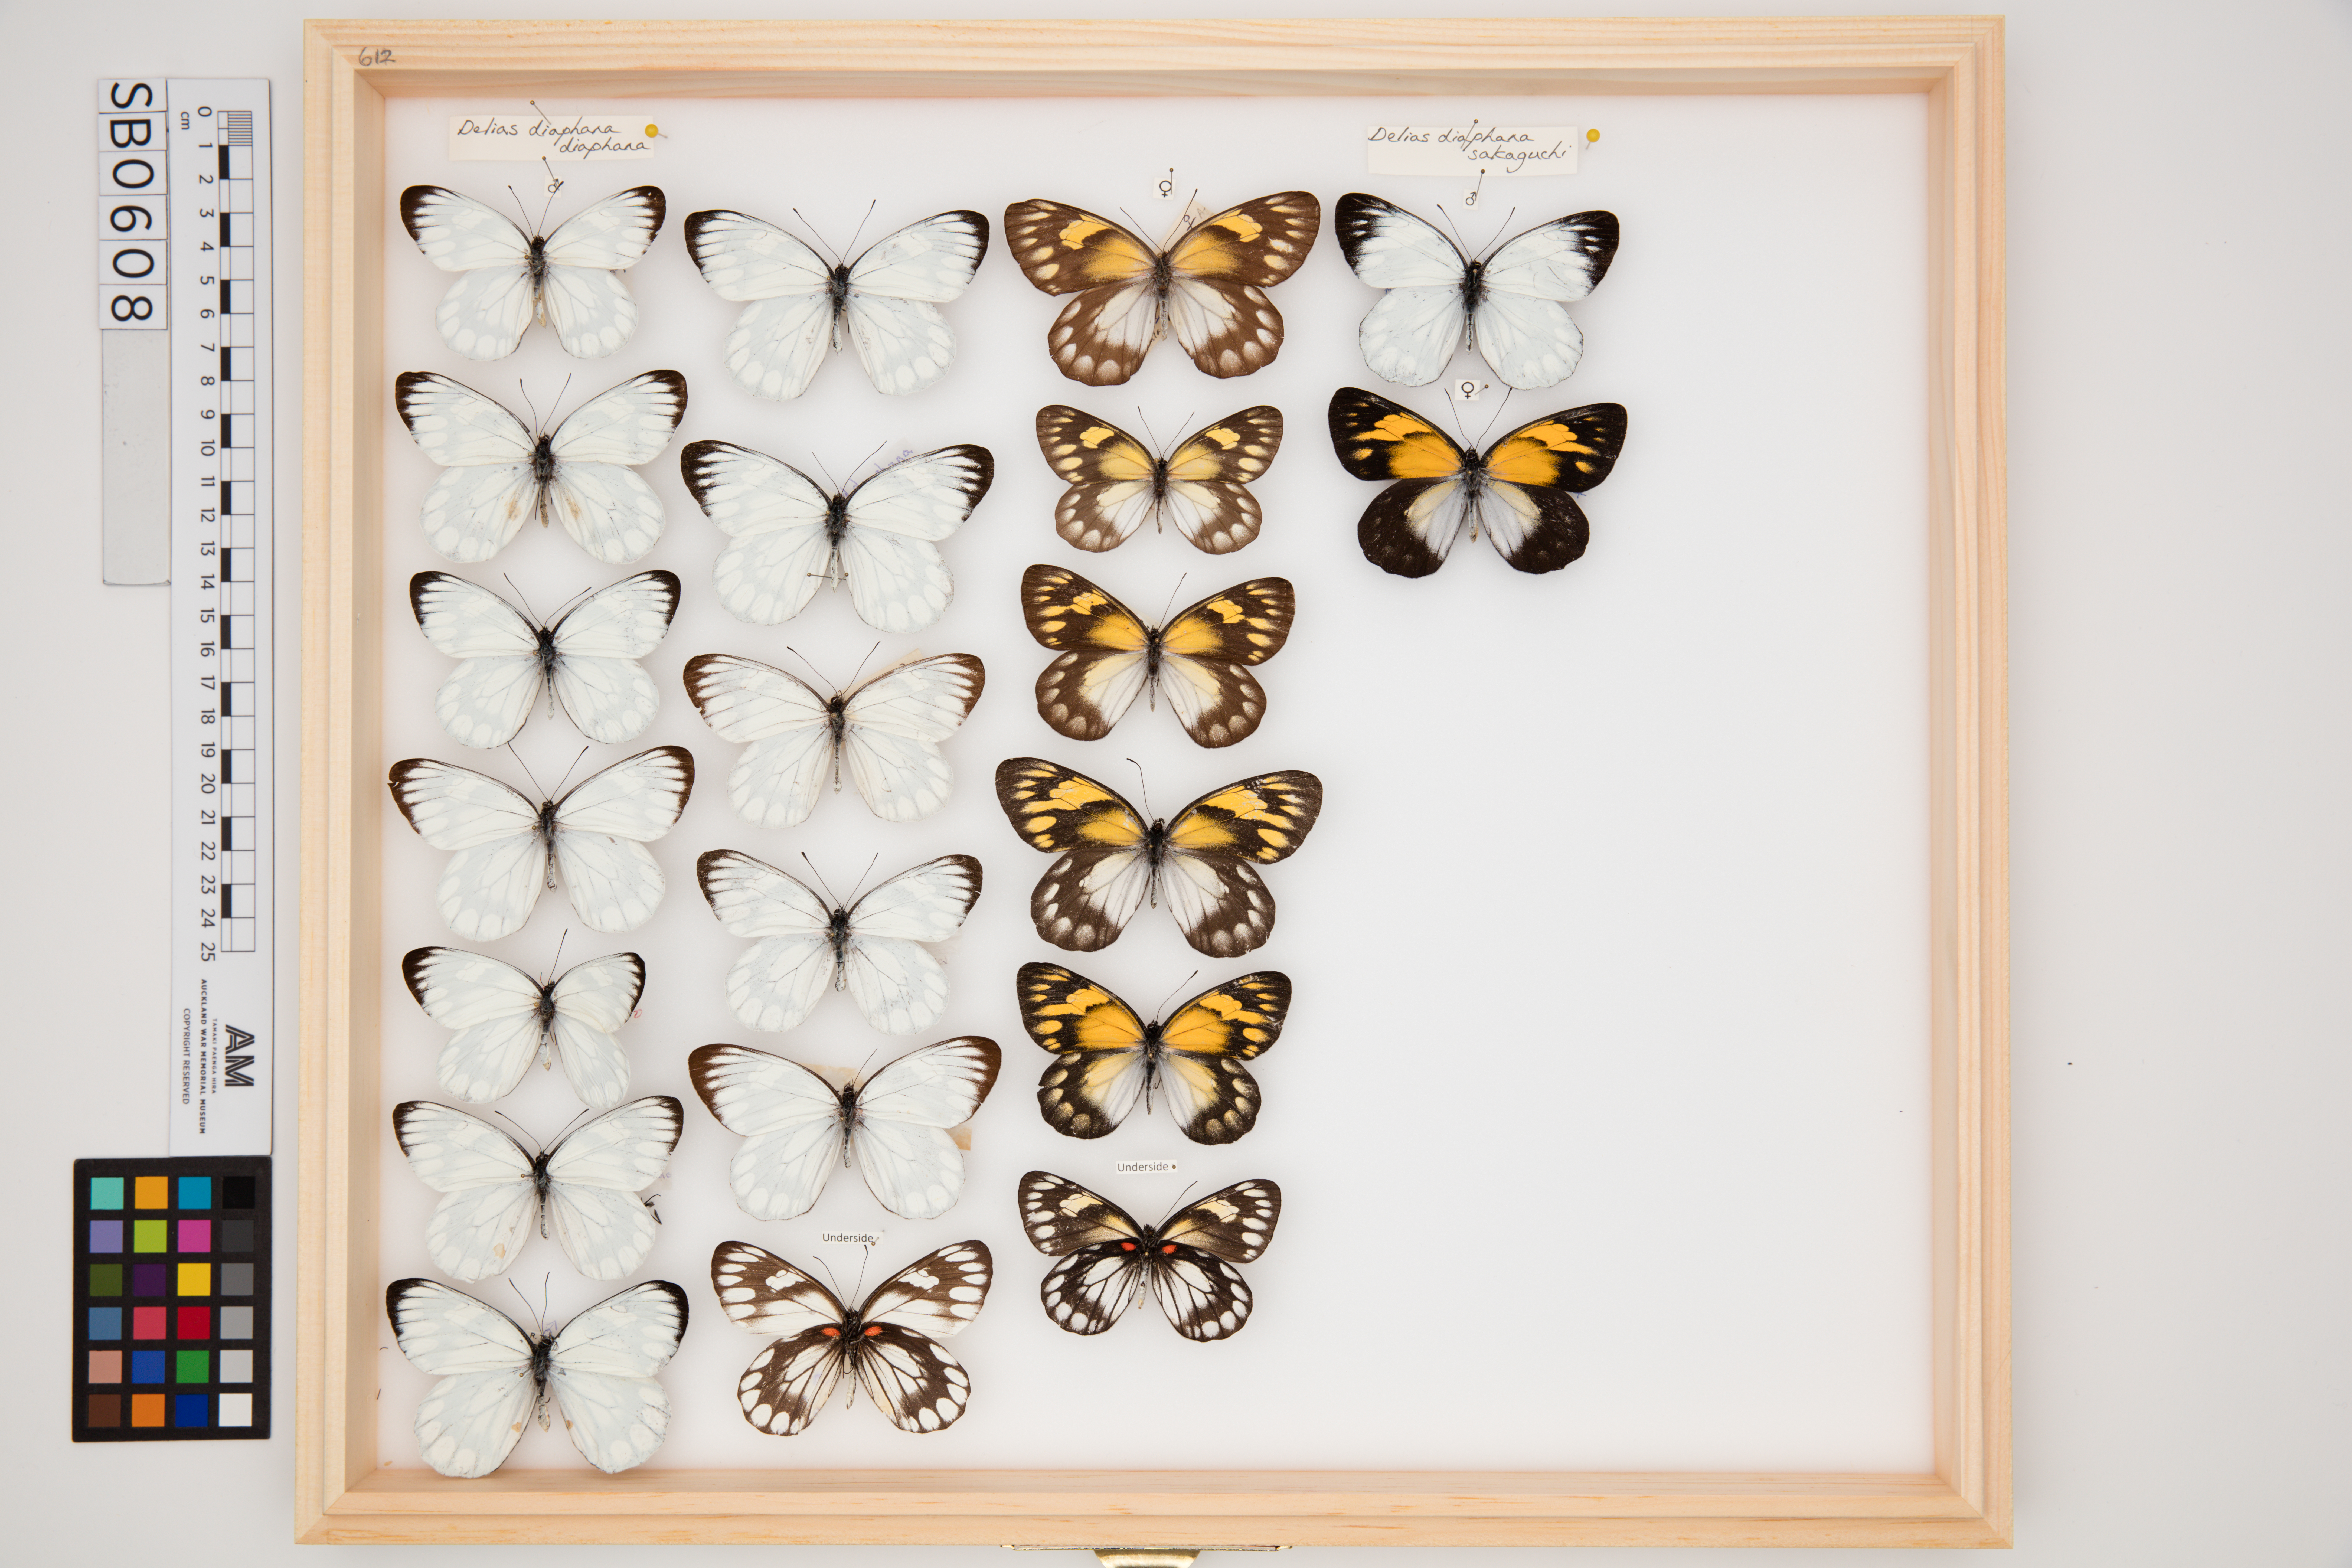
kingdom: Animalia
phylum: Arthropoda
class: Insecta
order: Lepidoptera
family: Pieridae
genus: Delias
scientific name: Delias diaphana
